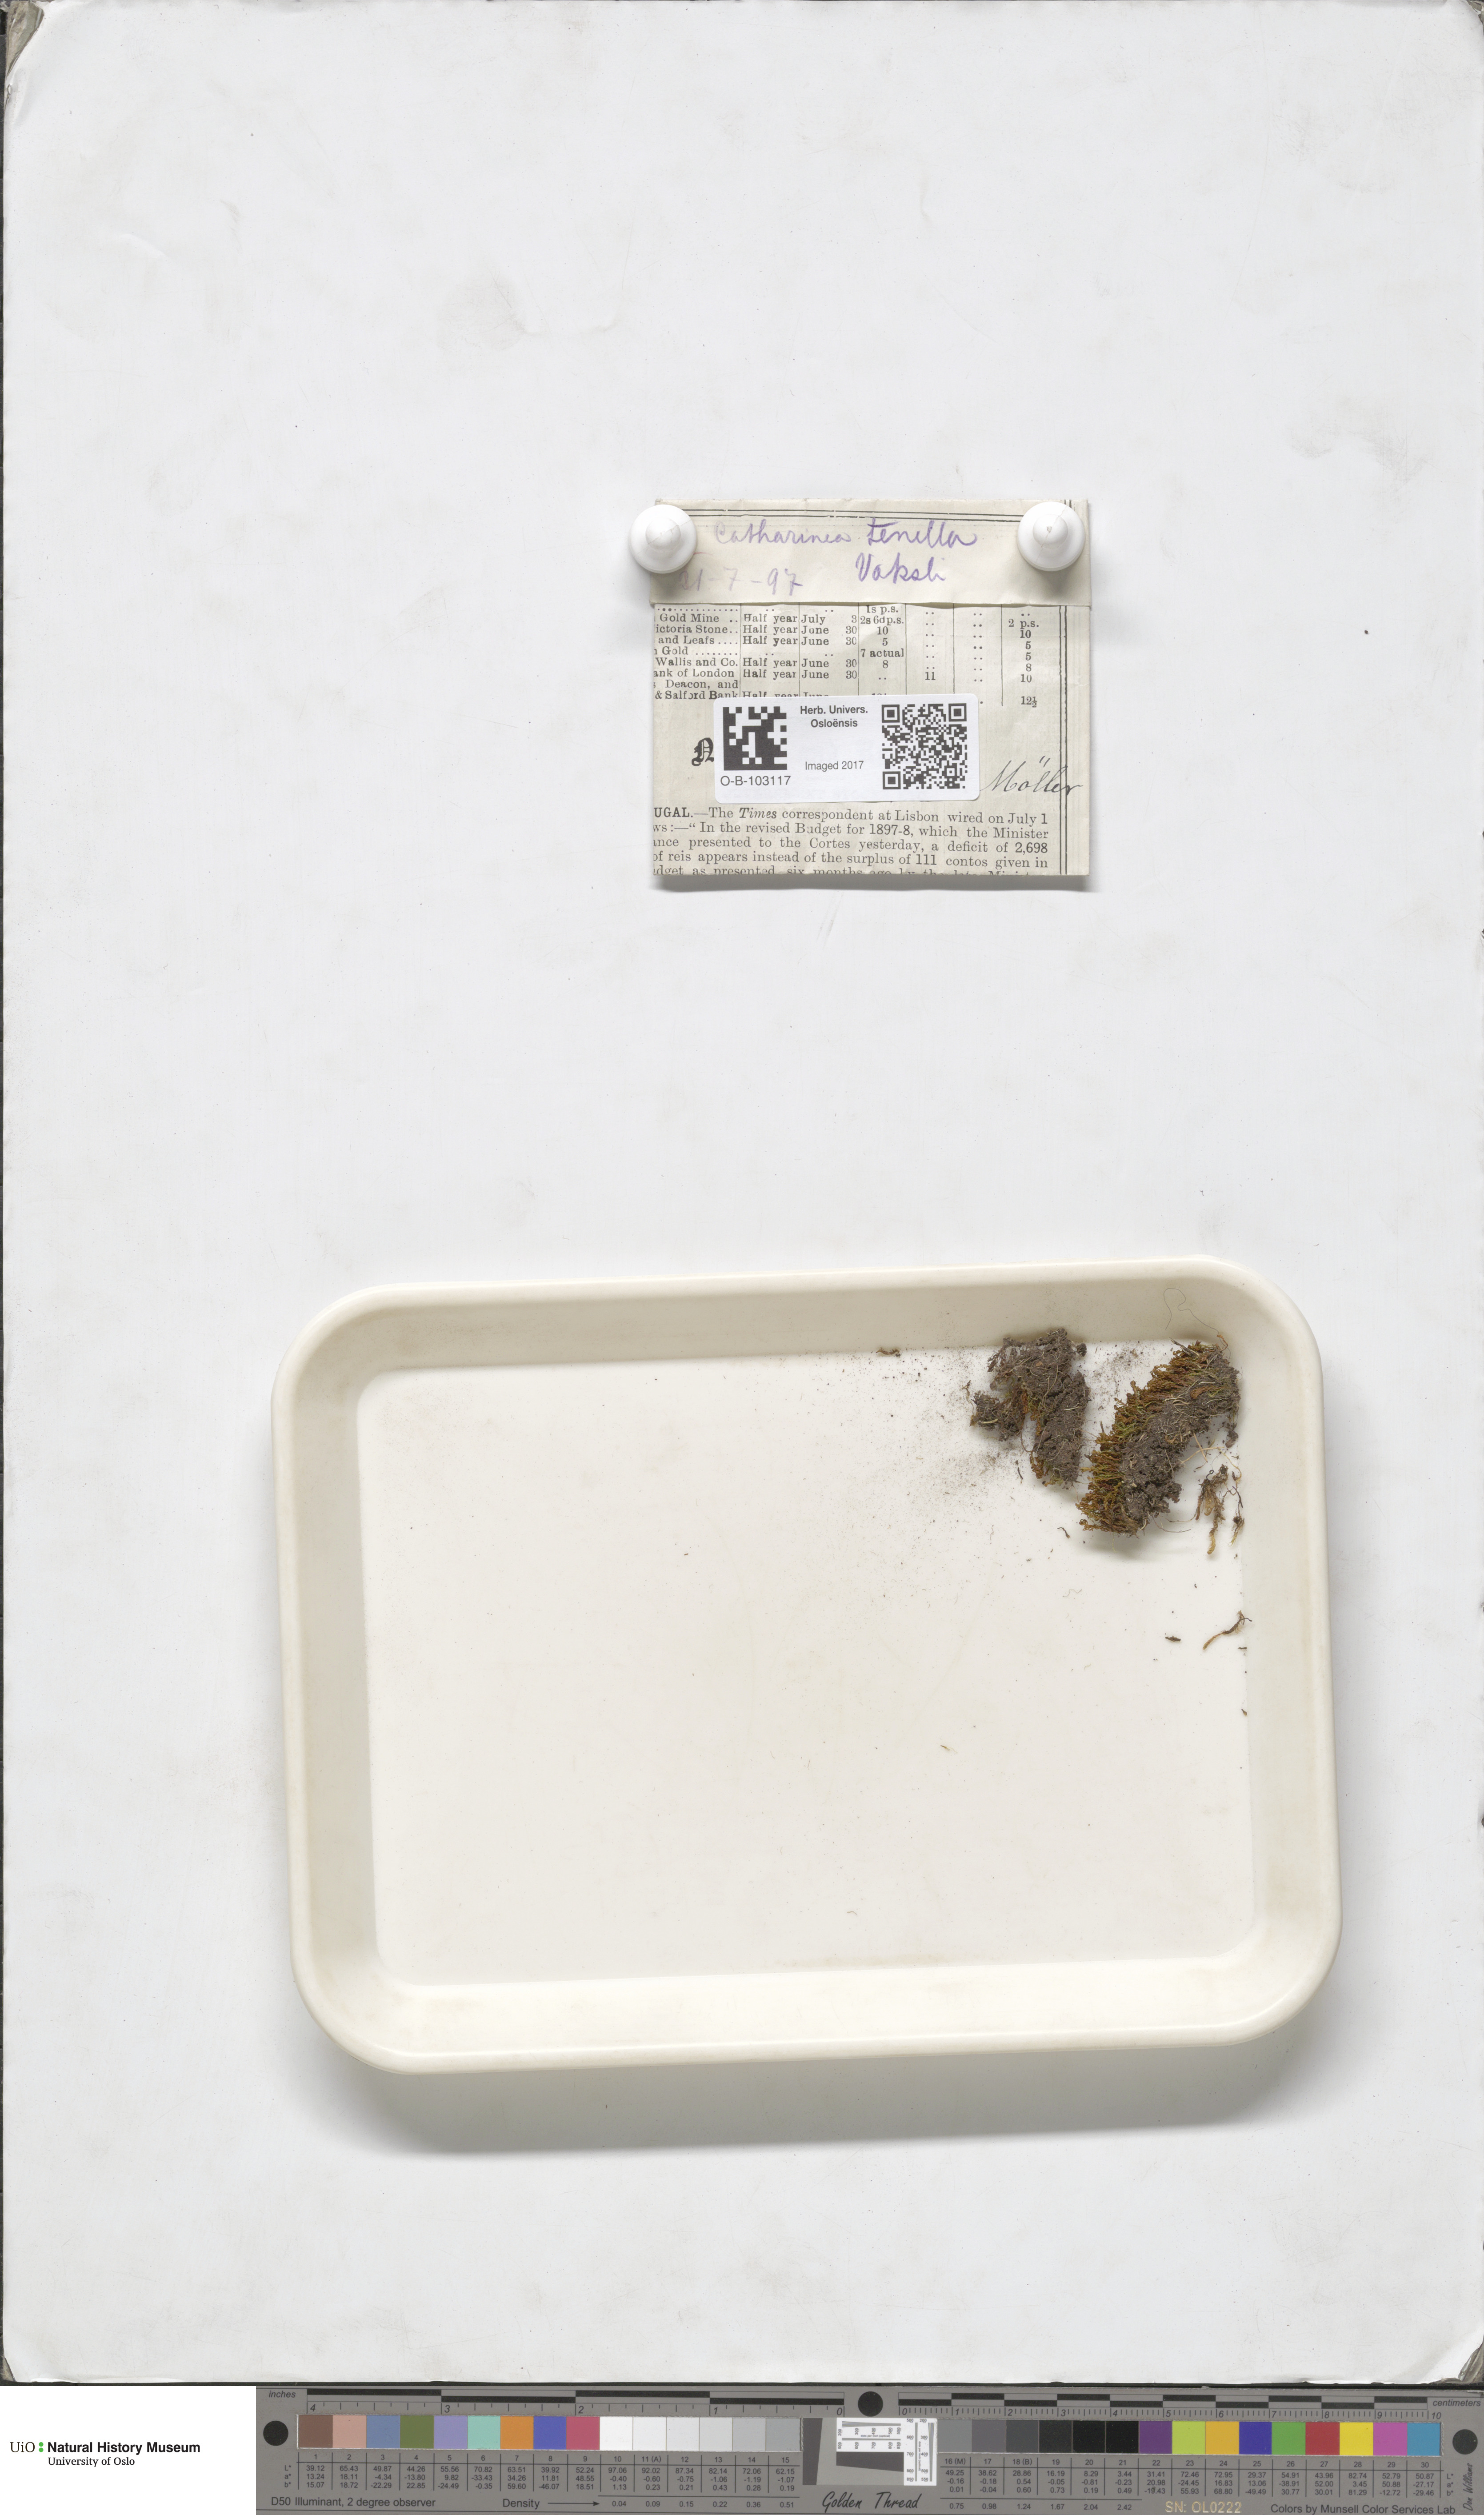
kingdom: Plantae
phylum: Bryophyta
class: Polytrichopsida
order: Polytrichales
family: Polytrichaceae
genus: Atrichum
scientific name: Atrichum tenellum
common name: Slender smoothcap moss
